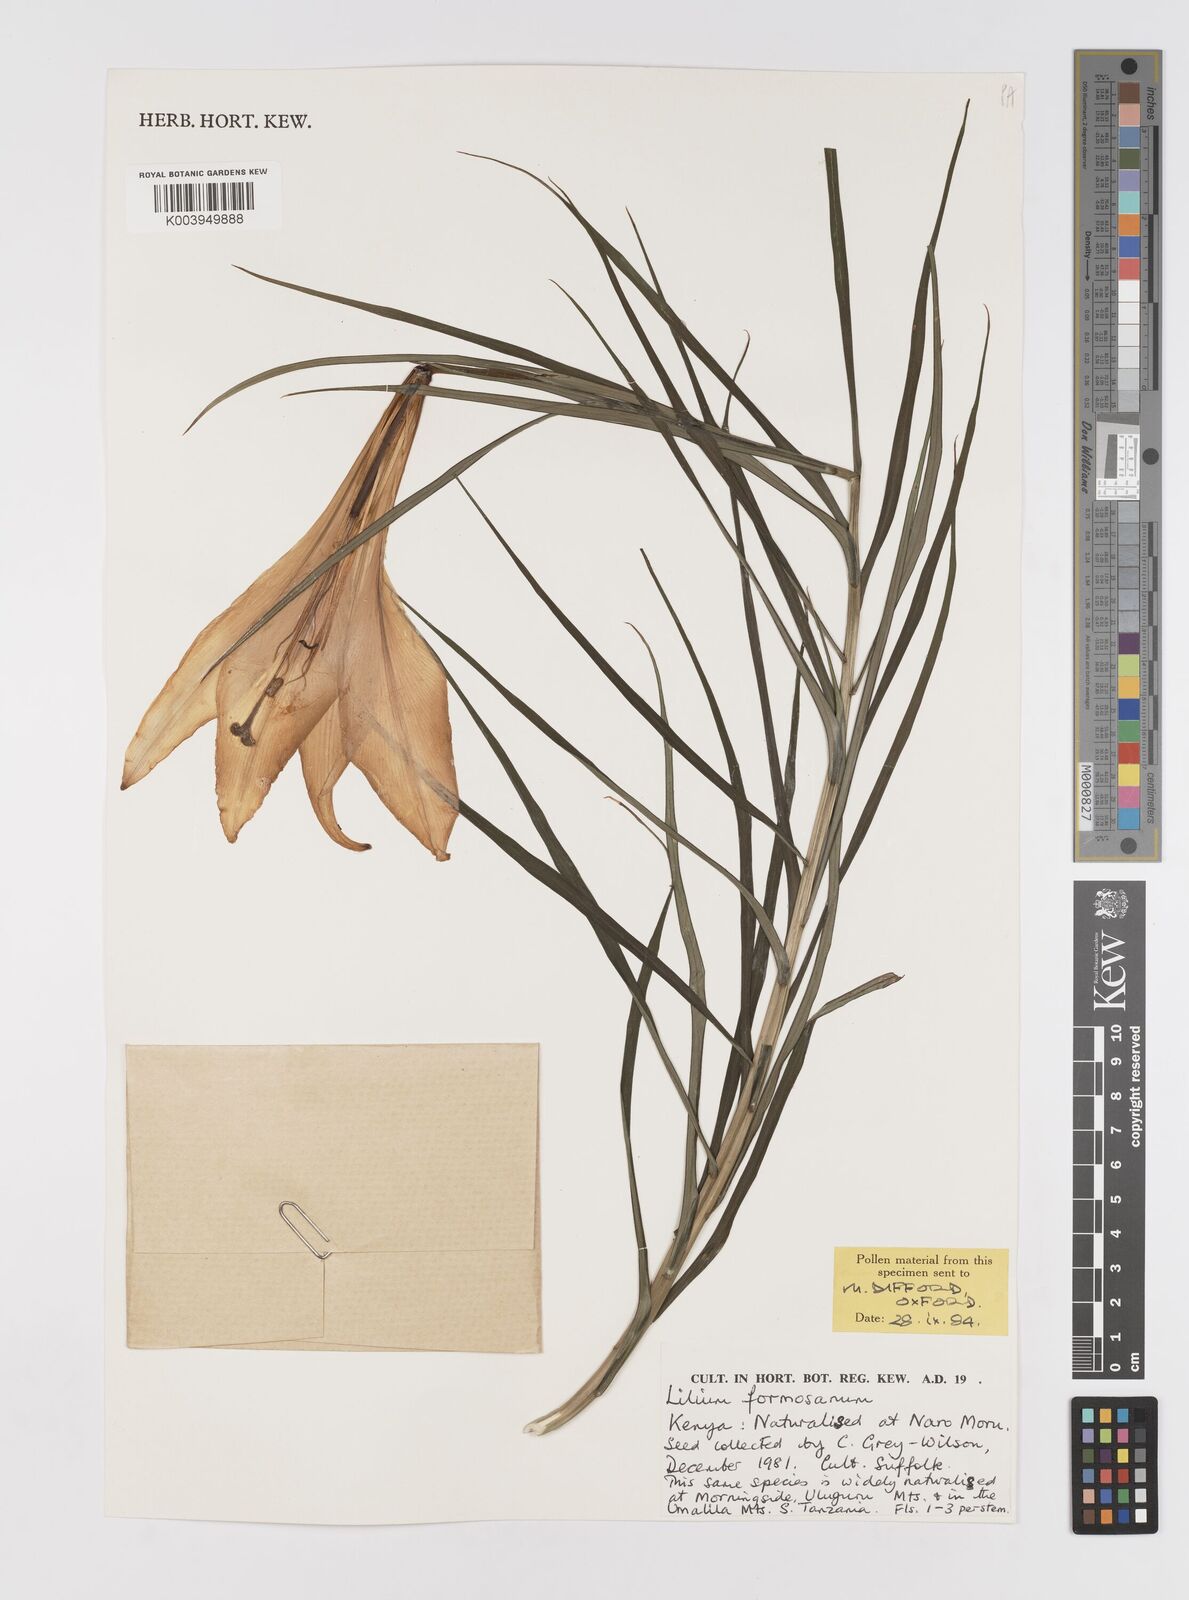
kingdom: Plantae
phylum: Tracheophyta
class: Liliopsida
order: Liliales
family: Liliaceae
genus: Lilium
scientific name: Lilium formosanum
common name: Formosa lily
